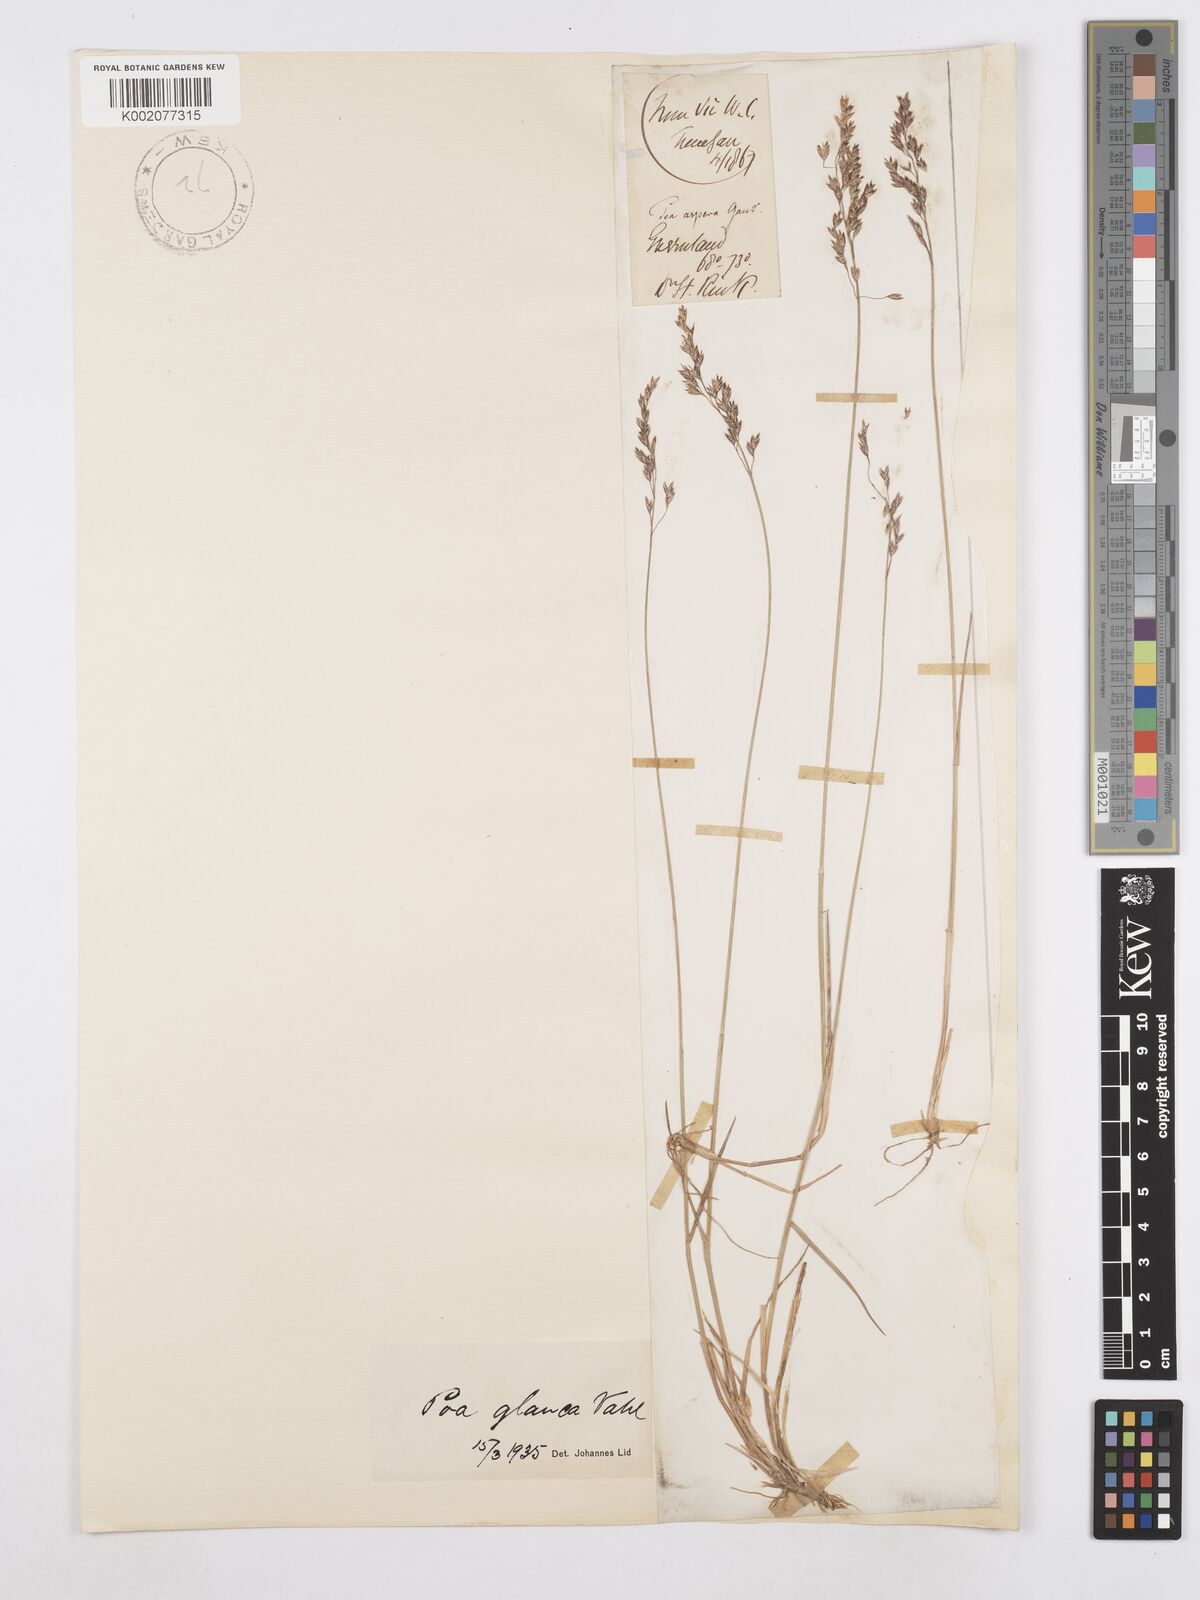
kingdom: Plantae
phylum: Tracheophyta
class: Liliopsida
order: Poales
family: Poaceae
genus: Poa
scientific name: Poa glauca
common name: Glaucous bluegrass
